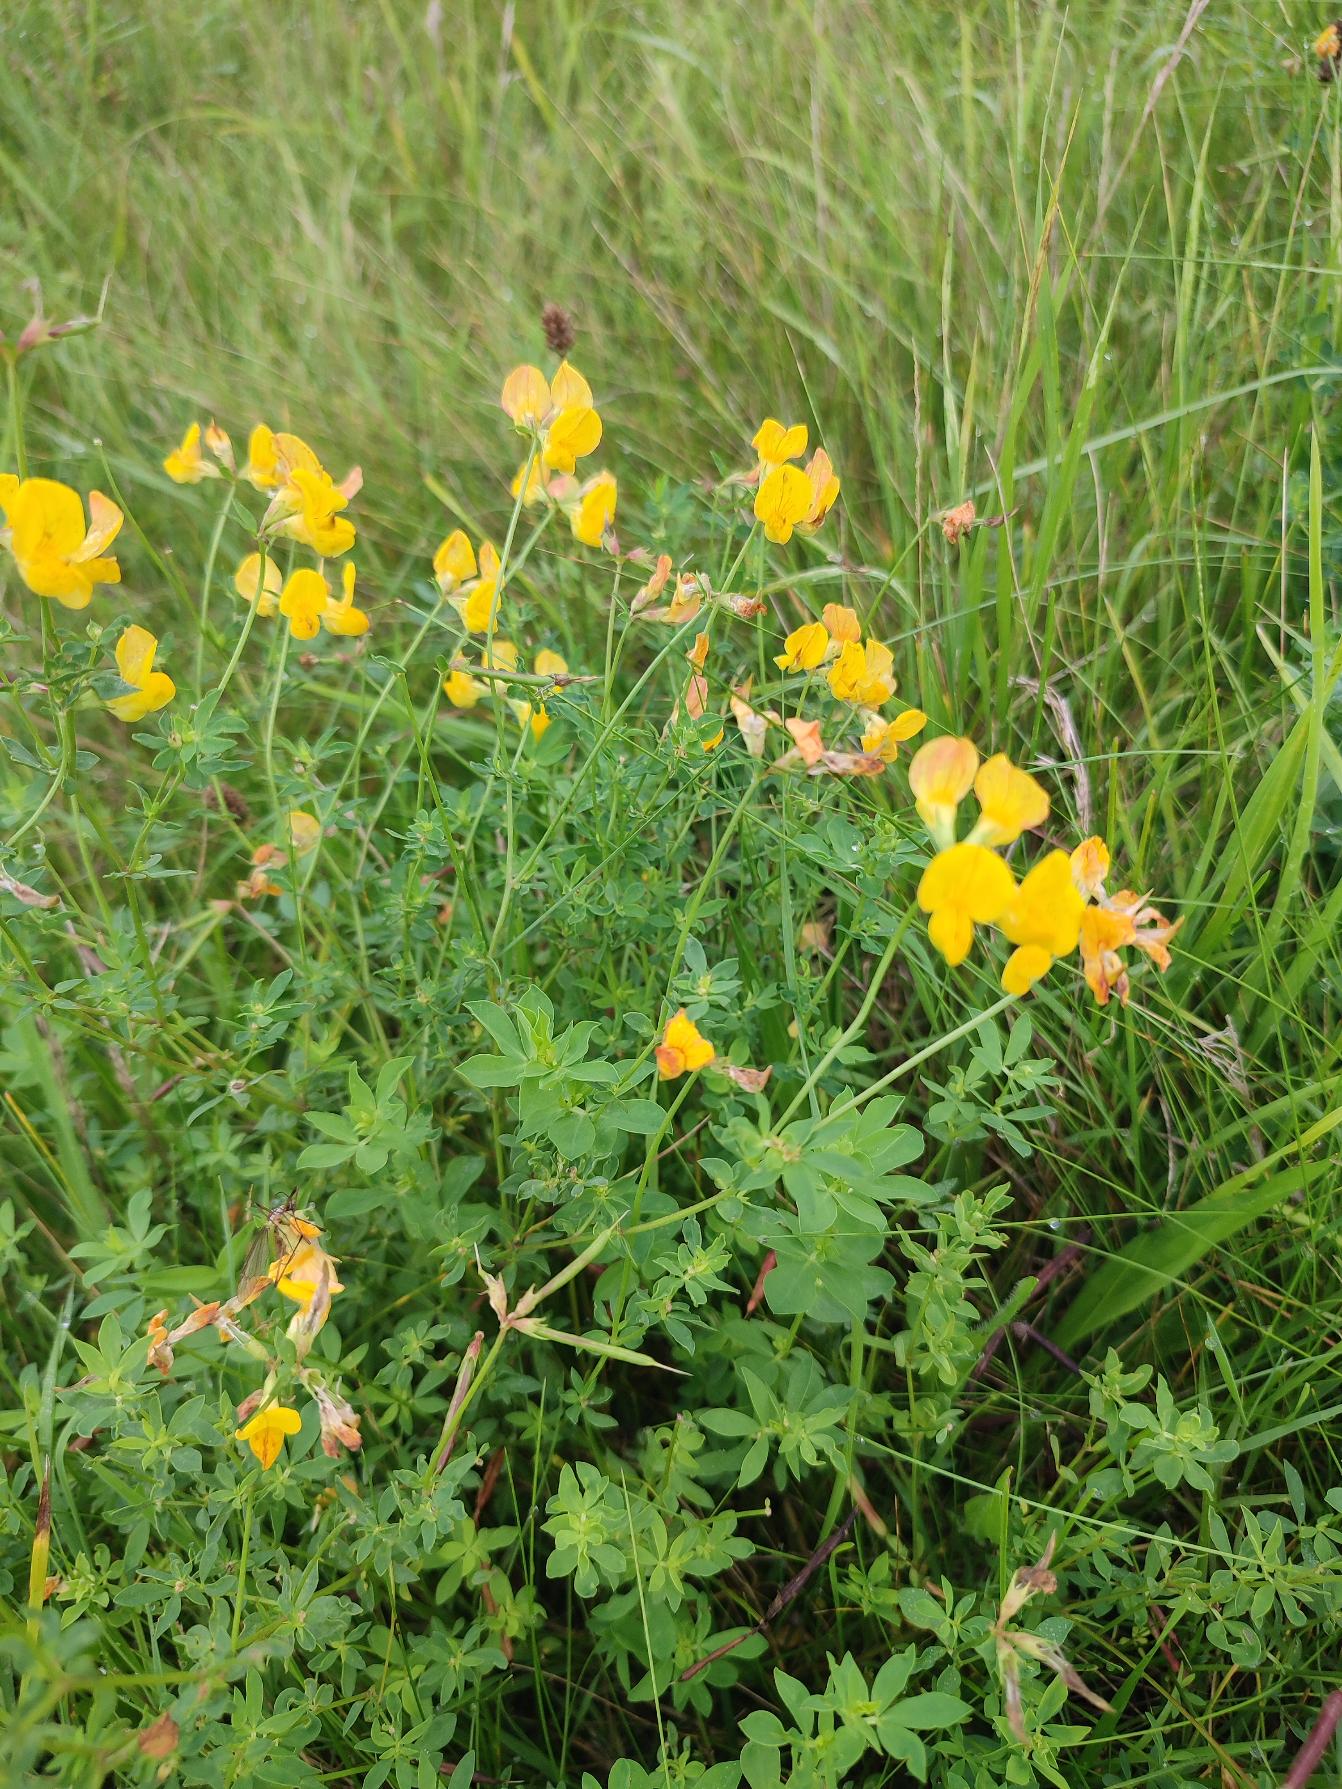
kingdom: Plantae
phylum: Tracheophyta
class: Magnoliopsida
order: Fabales
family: Fabaceae
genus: Lotus
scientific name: Lotus corniculatus
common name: Almindelig kællingetand
